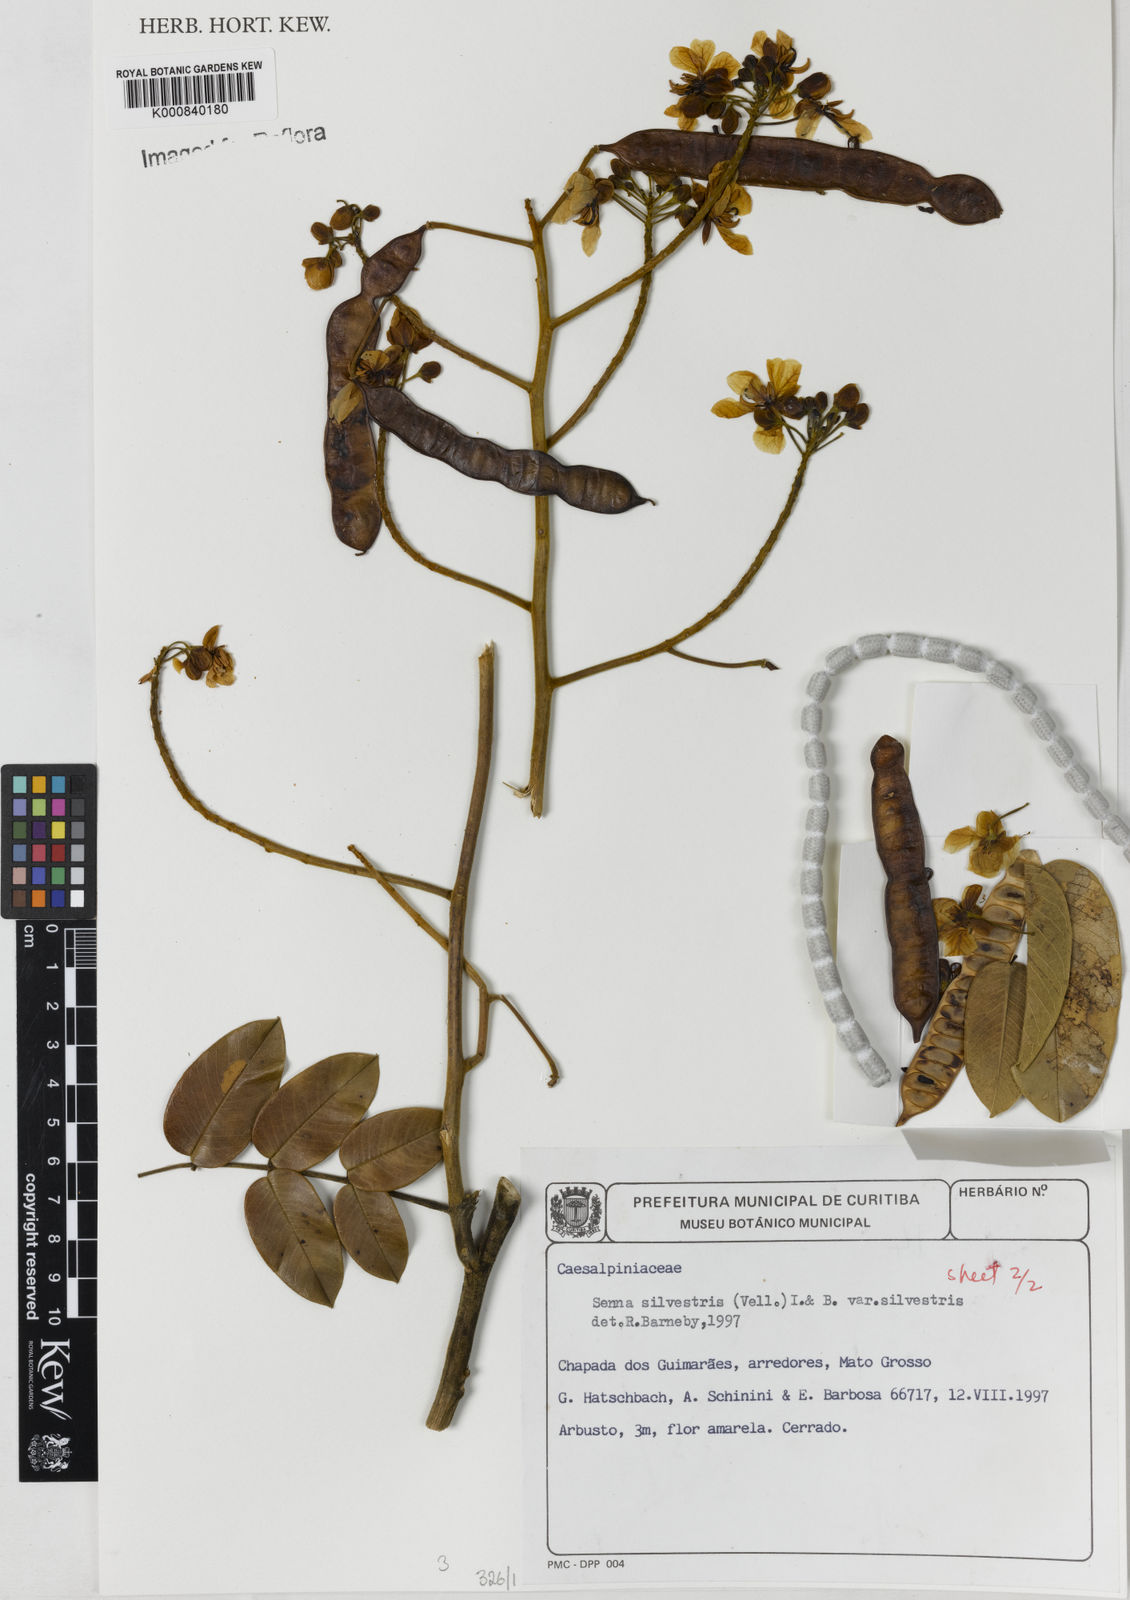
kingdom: Plantae
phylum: Tracheophyta
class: Magnoliopsida
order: Fabales
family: Fabaceae
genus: Senna
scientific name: Senna silvestris
